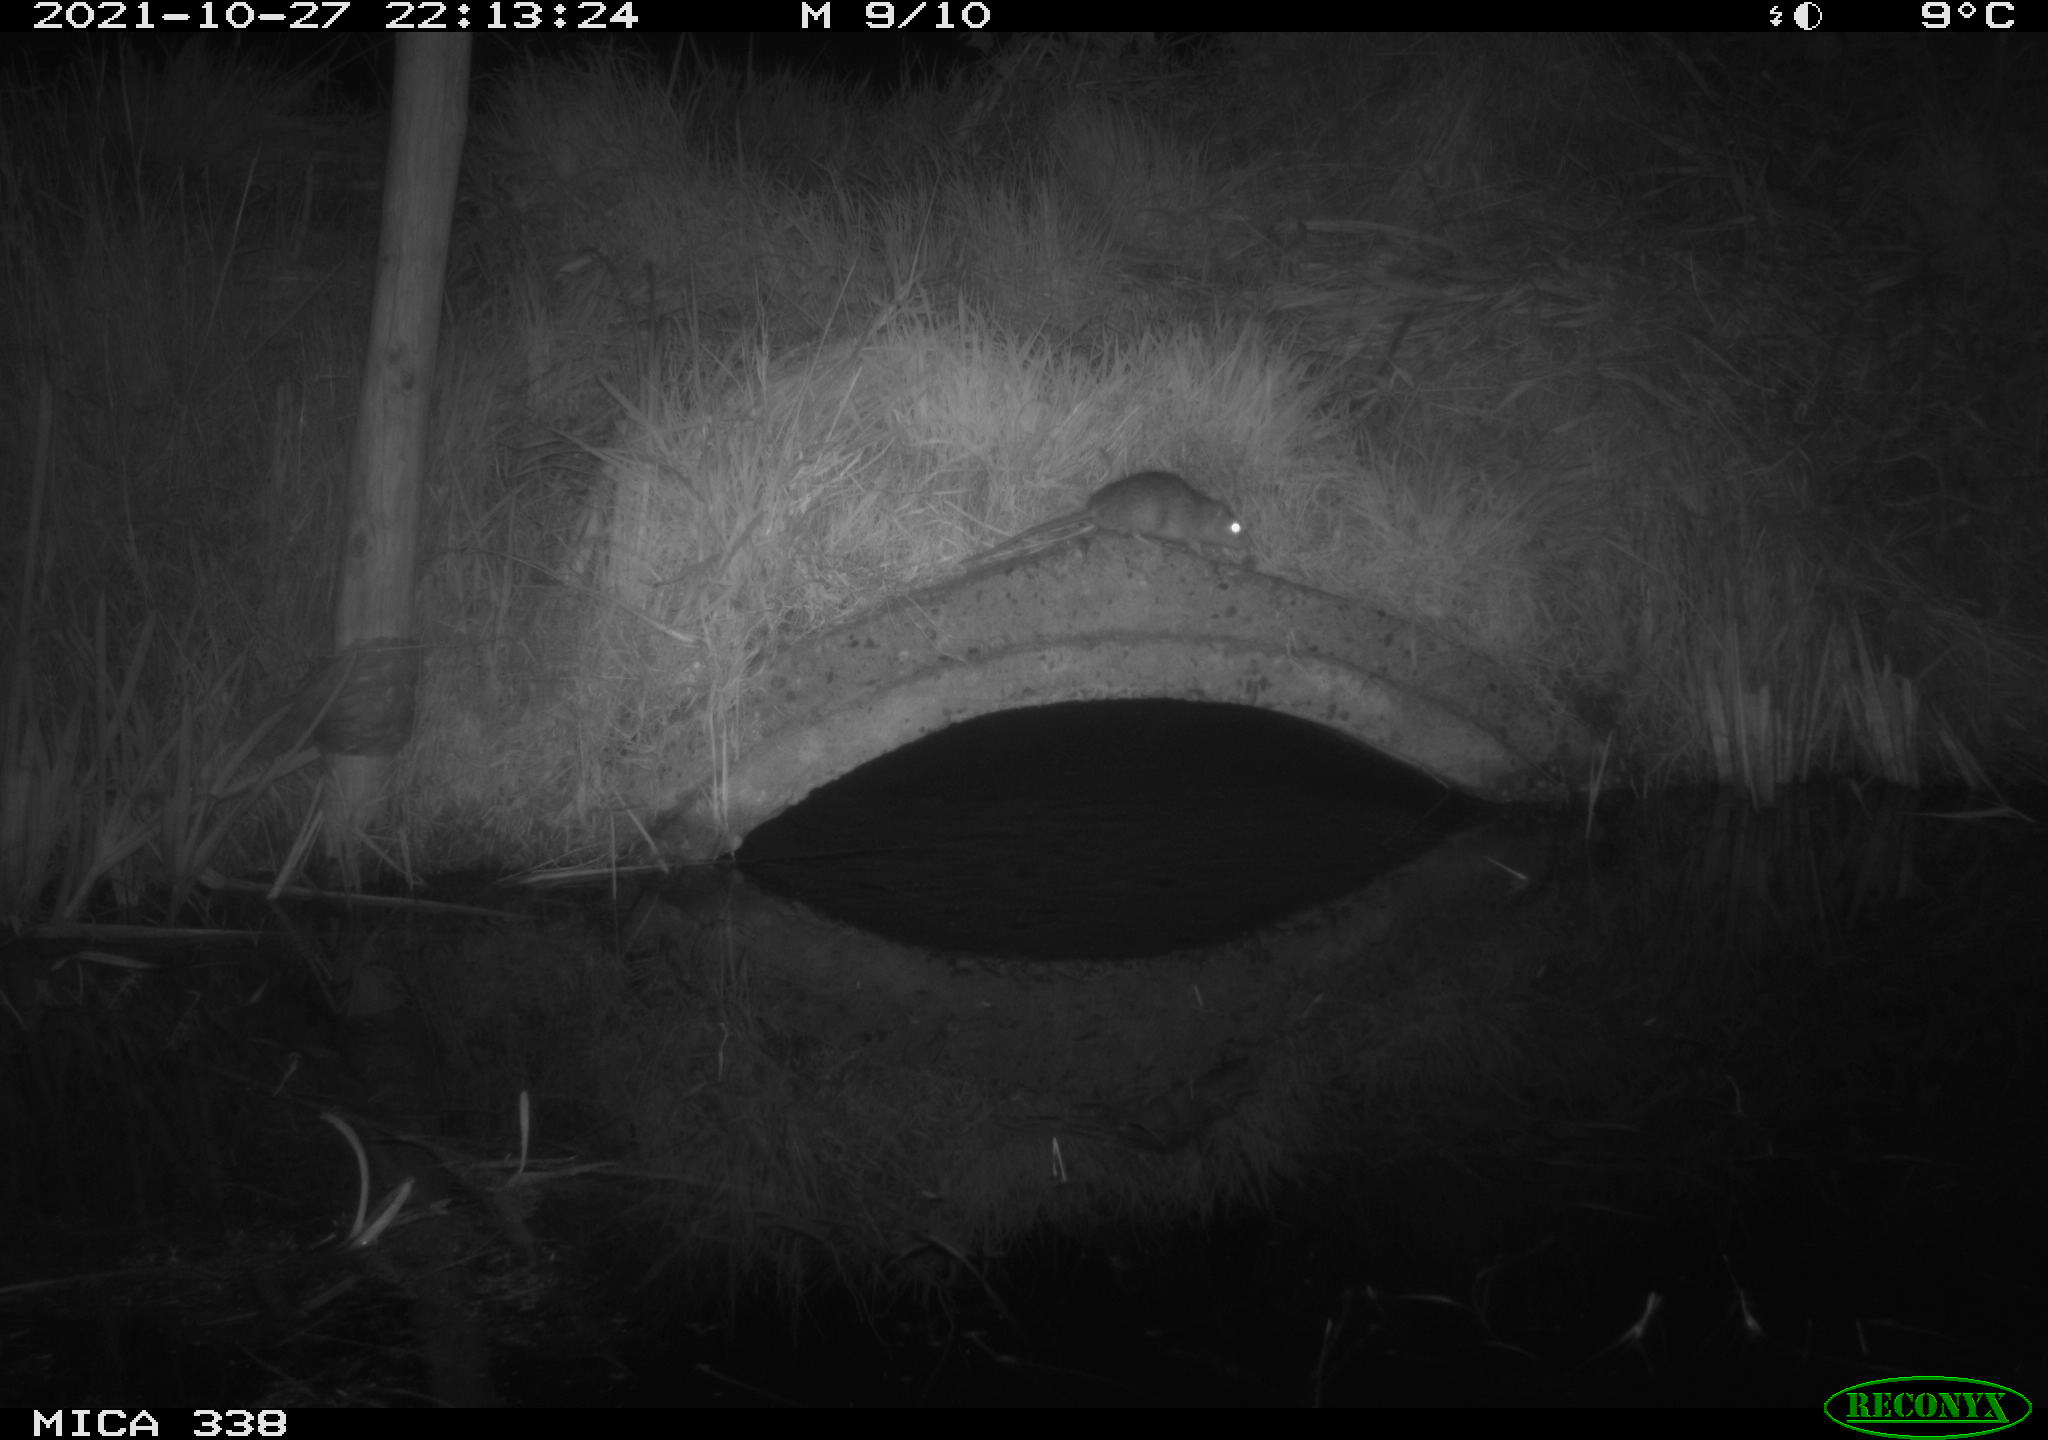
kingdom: Animalia
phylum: Chordata
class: Mammalia
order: Rodentia
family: Muridae
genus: Rattus
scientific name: Rattus norvegicus
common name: Brown rat
